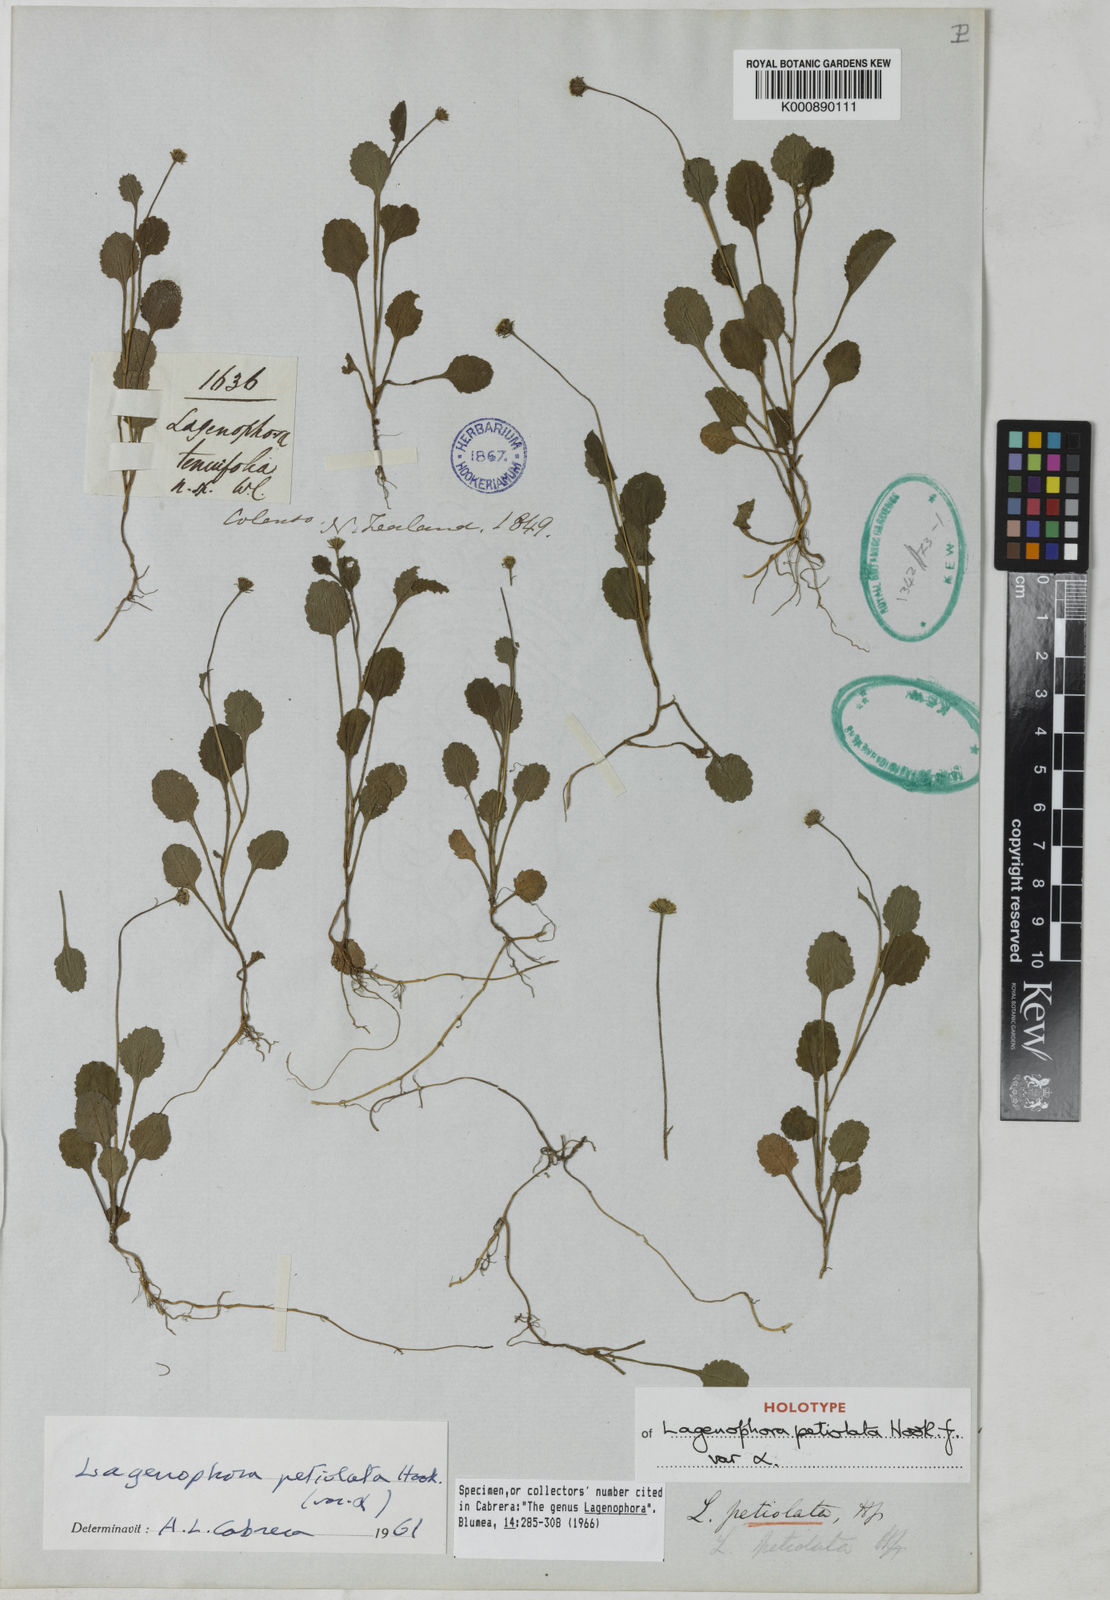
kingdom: Plantae
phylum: Tracheophyta
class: Magnoliopsida
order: Asterales
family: Asteraceae
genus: Lagenophora
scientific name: Lagenophora petiolata
